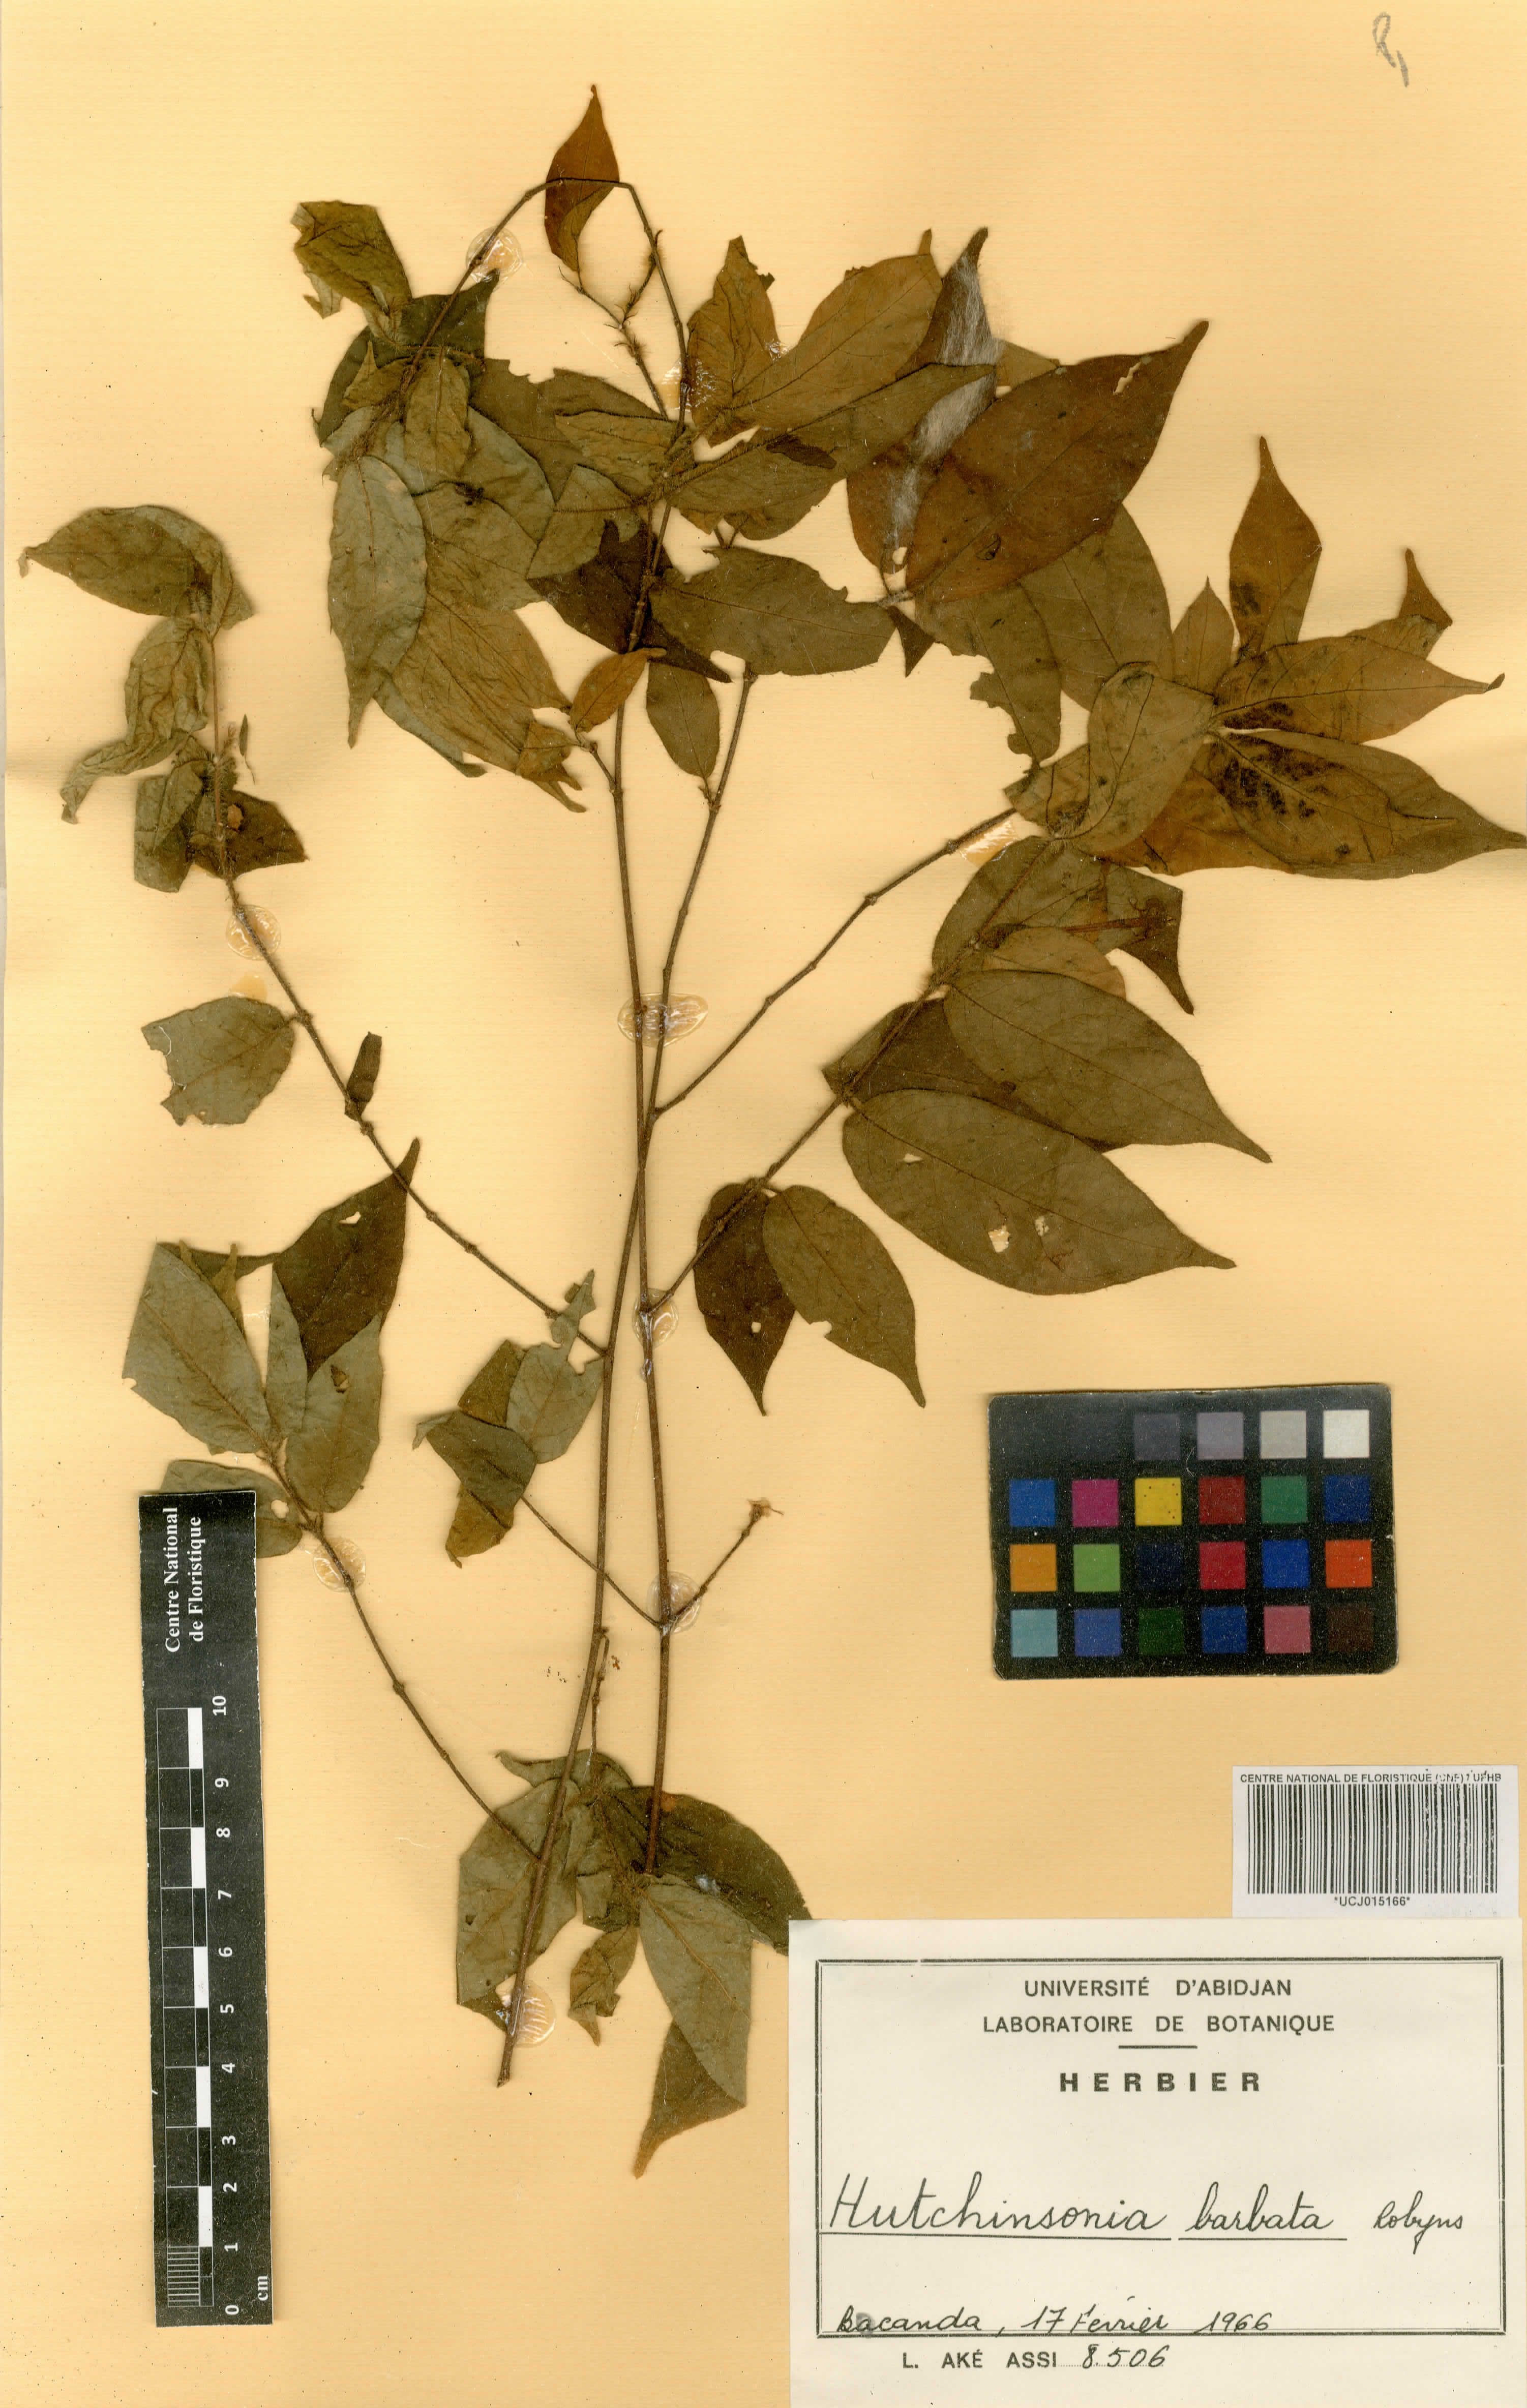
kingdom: Plantae
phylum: Tracheophyta
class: Magnoliopsida
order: Gentianales
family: Rubiaceae
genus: Hutchinsonia
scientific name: Hutchinsonia barbata
